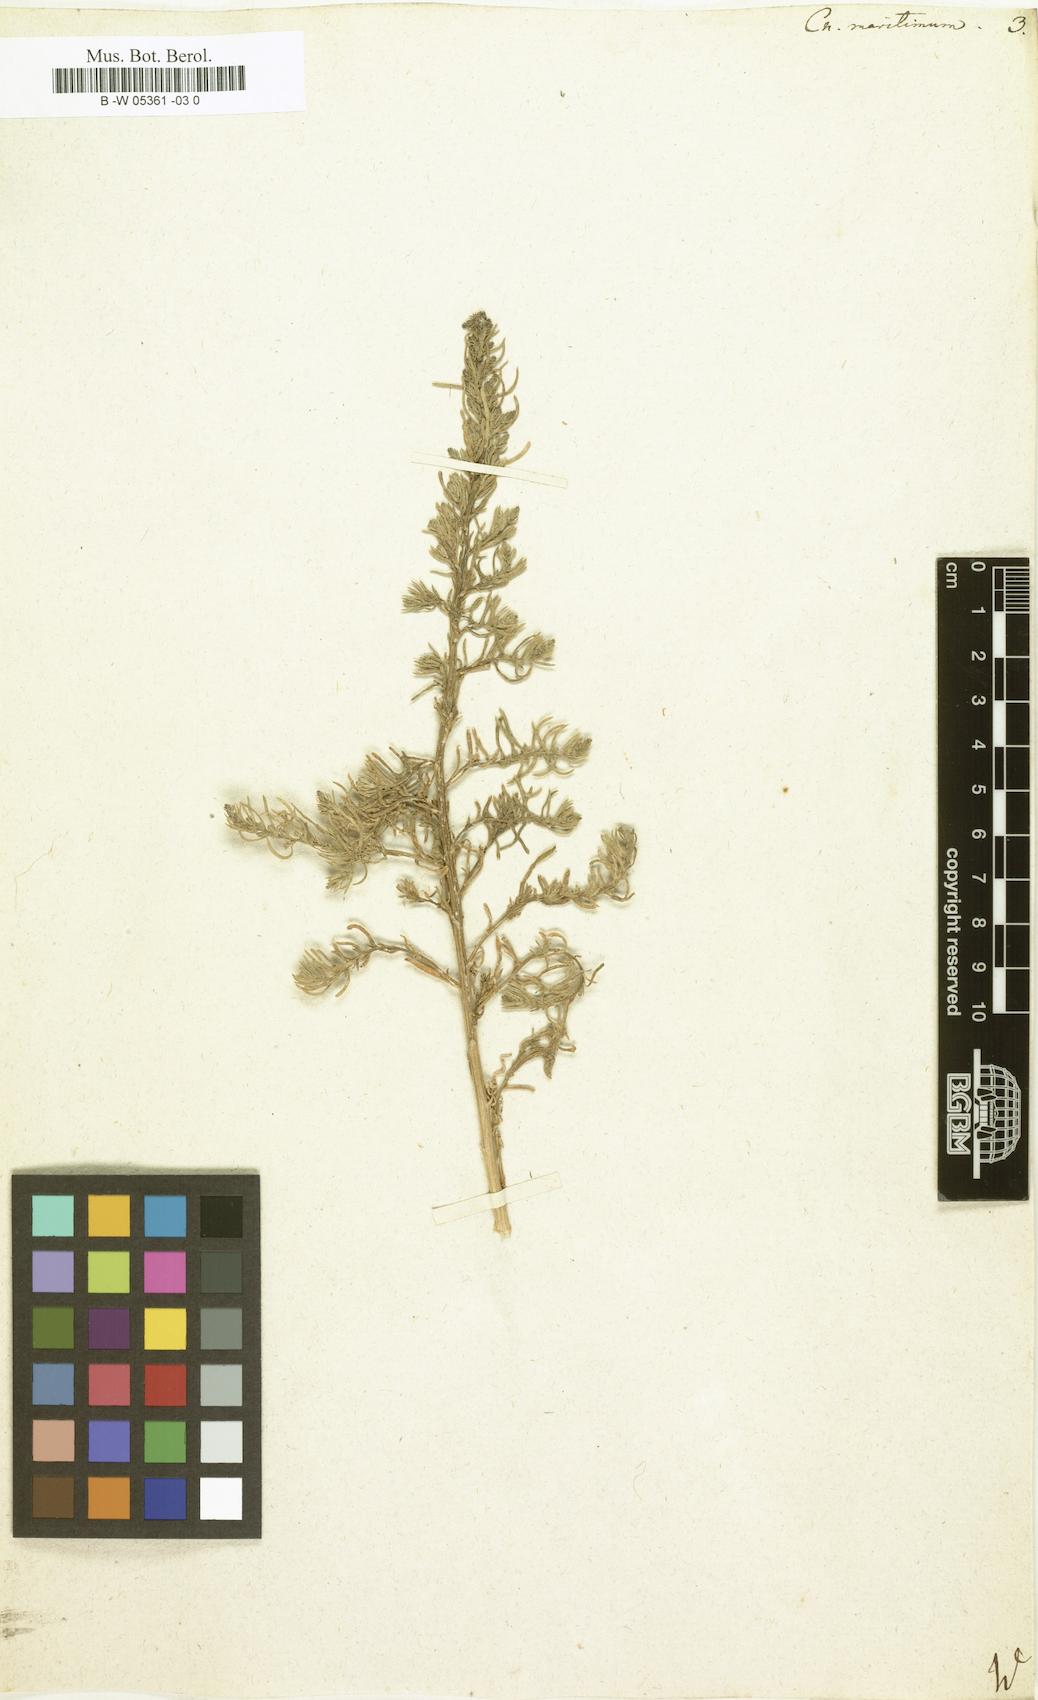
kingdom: Plantae
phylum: Tracheophyta
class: Magnoliopsida
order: Caryophyllales
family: Amaranthaceae
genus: Suaeda
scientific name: Suaeda
